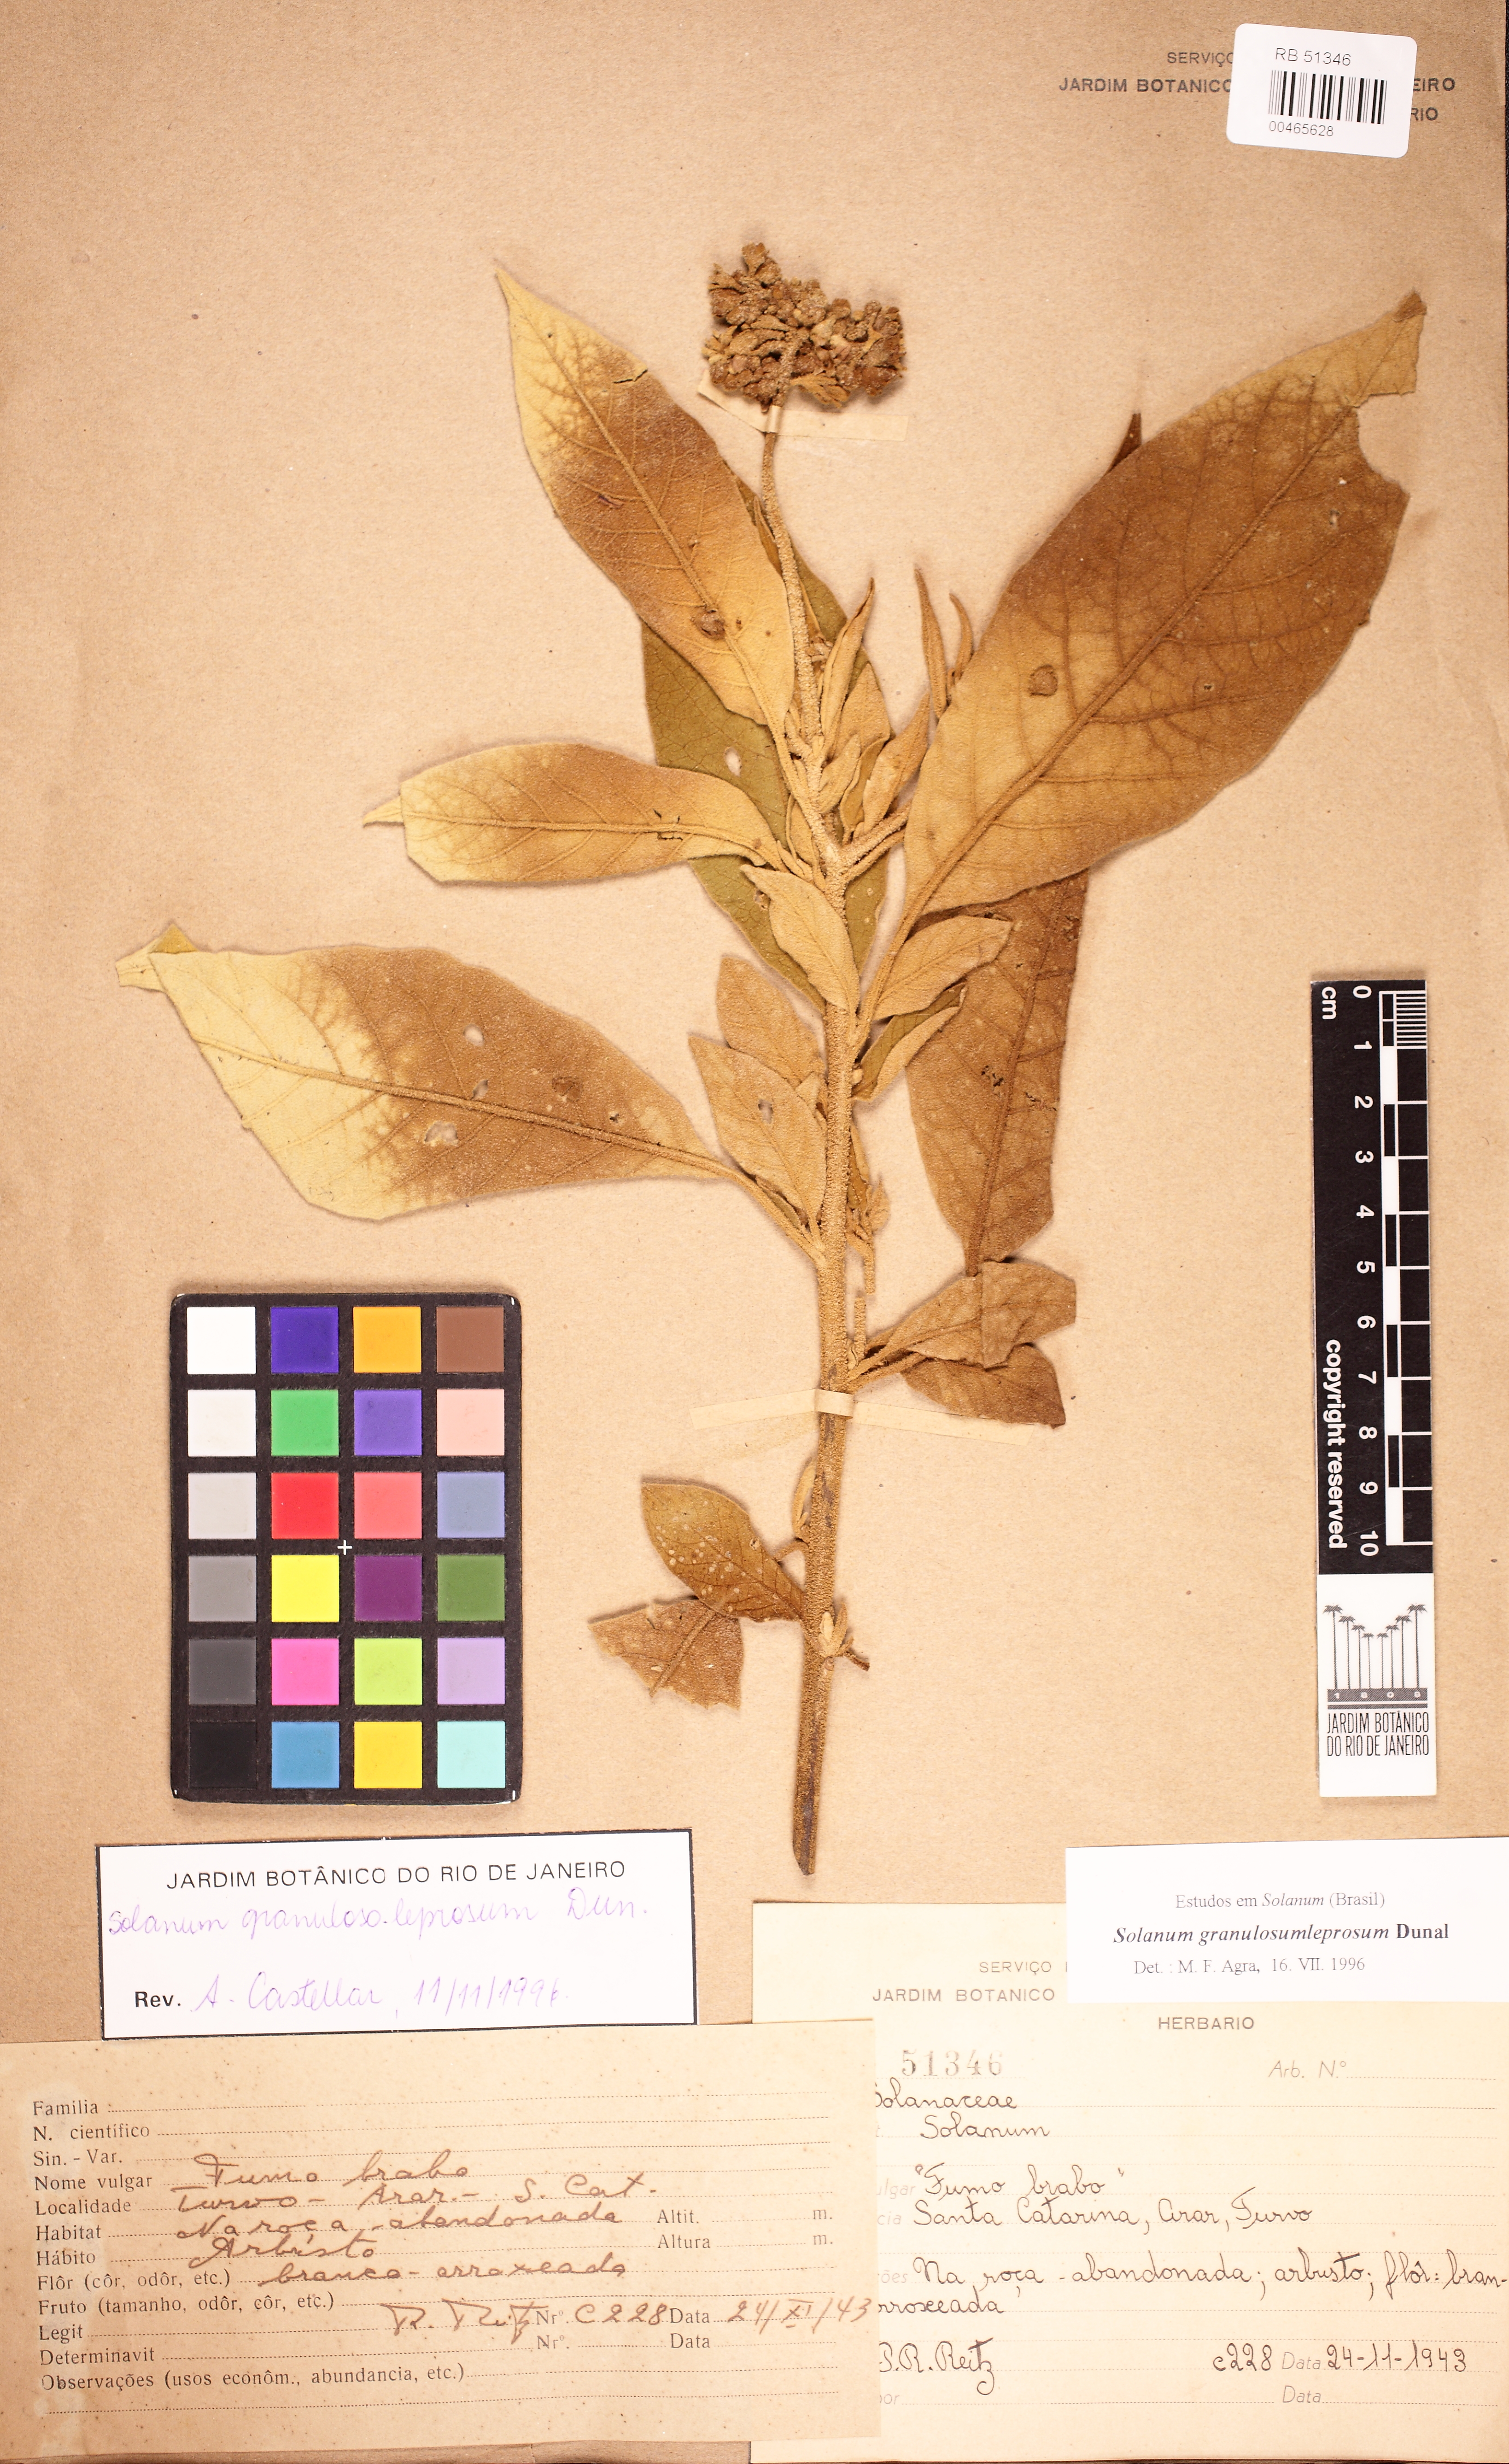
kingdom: Plantae
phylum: Tracheophyta
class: Magnoliopsida
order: Solanales
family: Solanaceae
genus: Solanum
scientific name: Solanum granulosoleprosum
